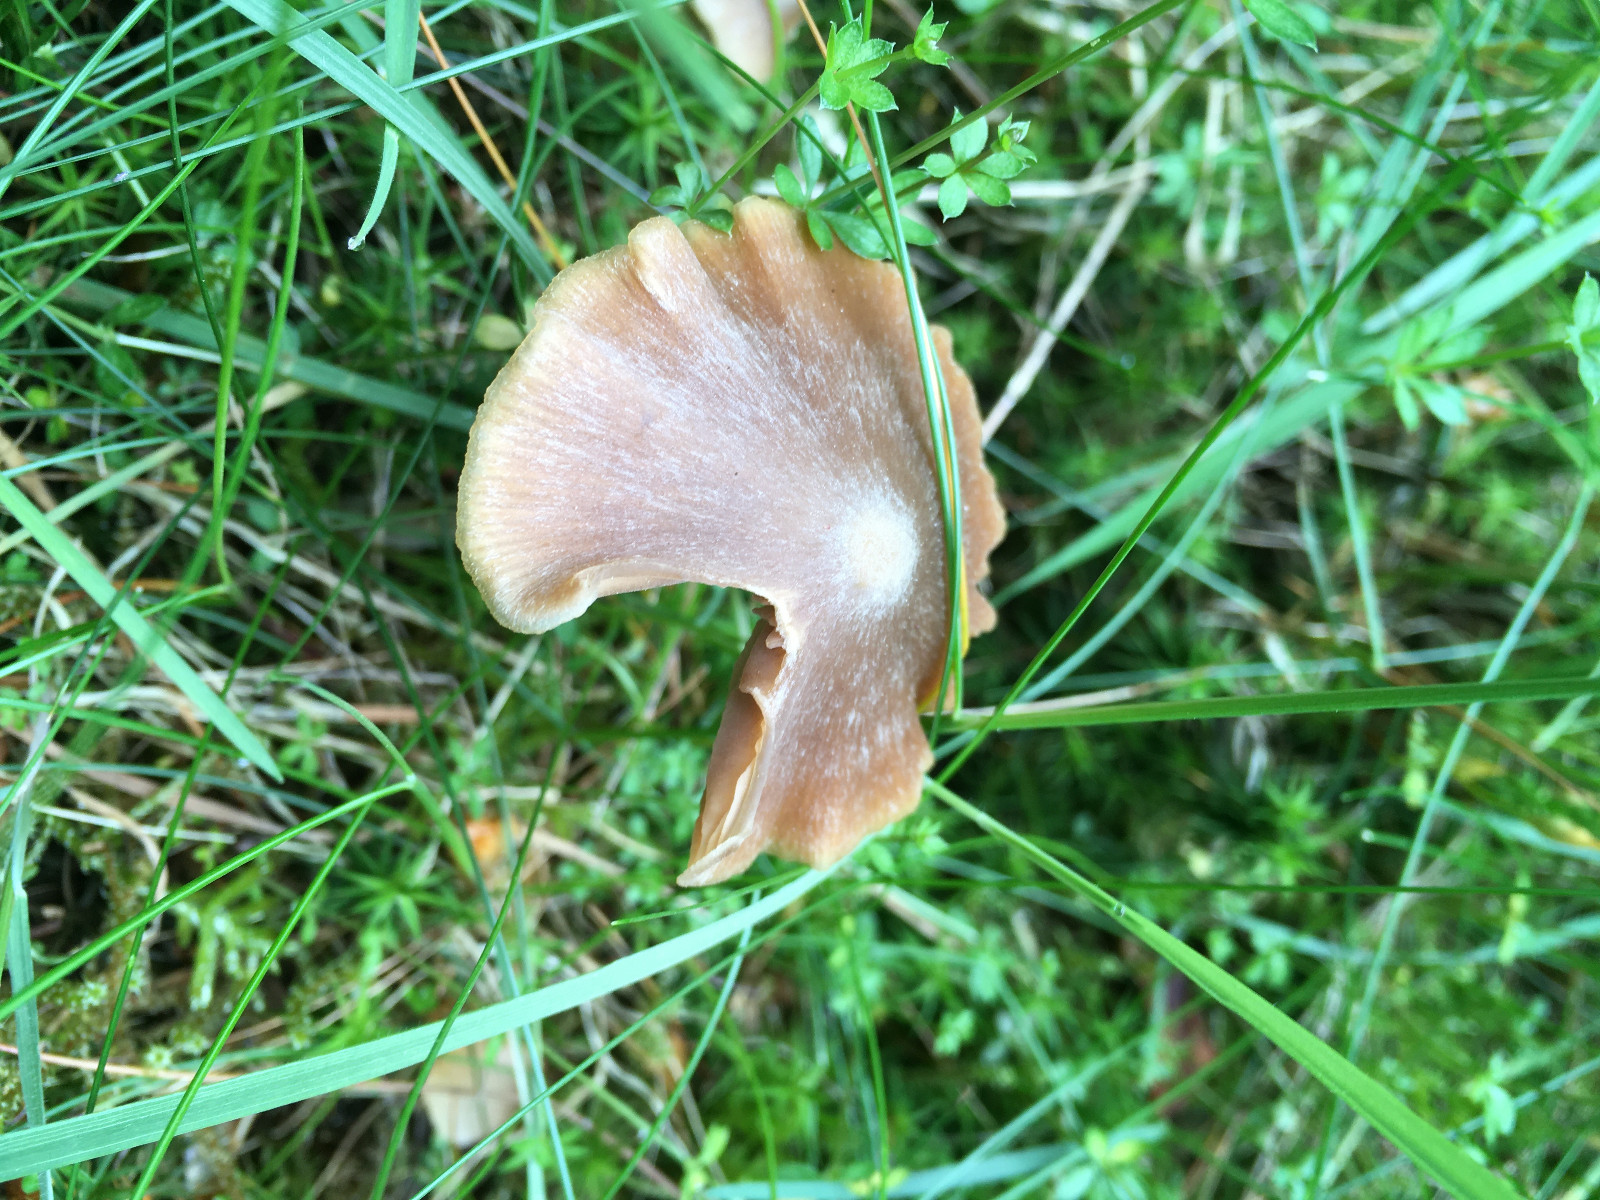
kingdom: Fungi
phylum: Basidiomycota
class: Agaricomycetes
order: Agaricales
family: Entolomataceae
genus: Entoloma
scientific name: Entoloma
